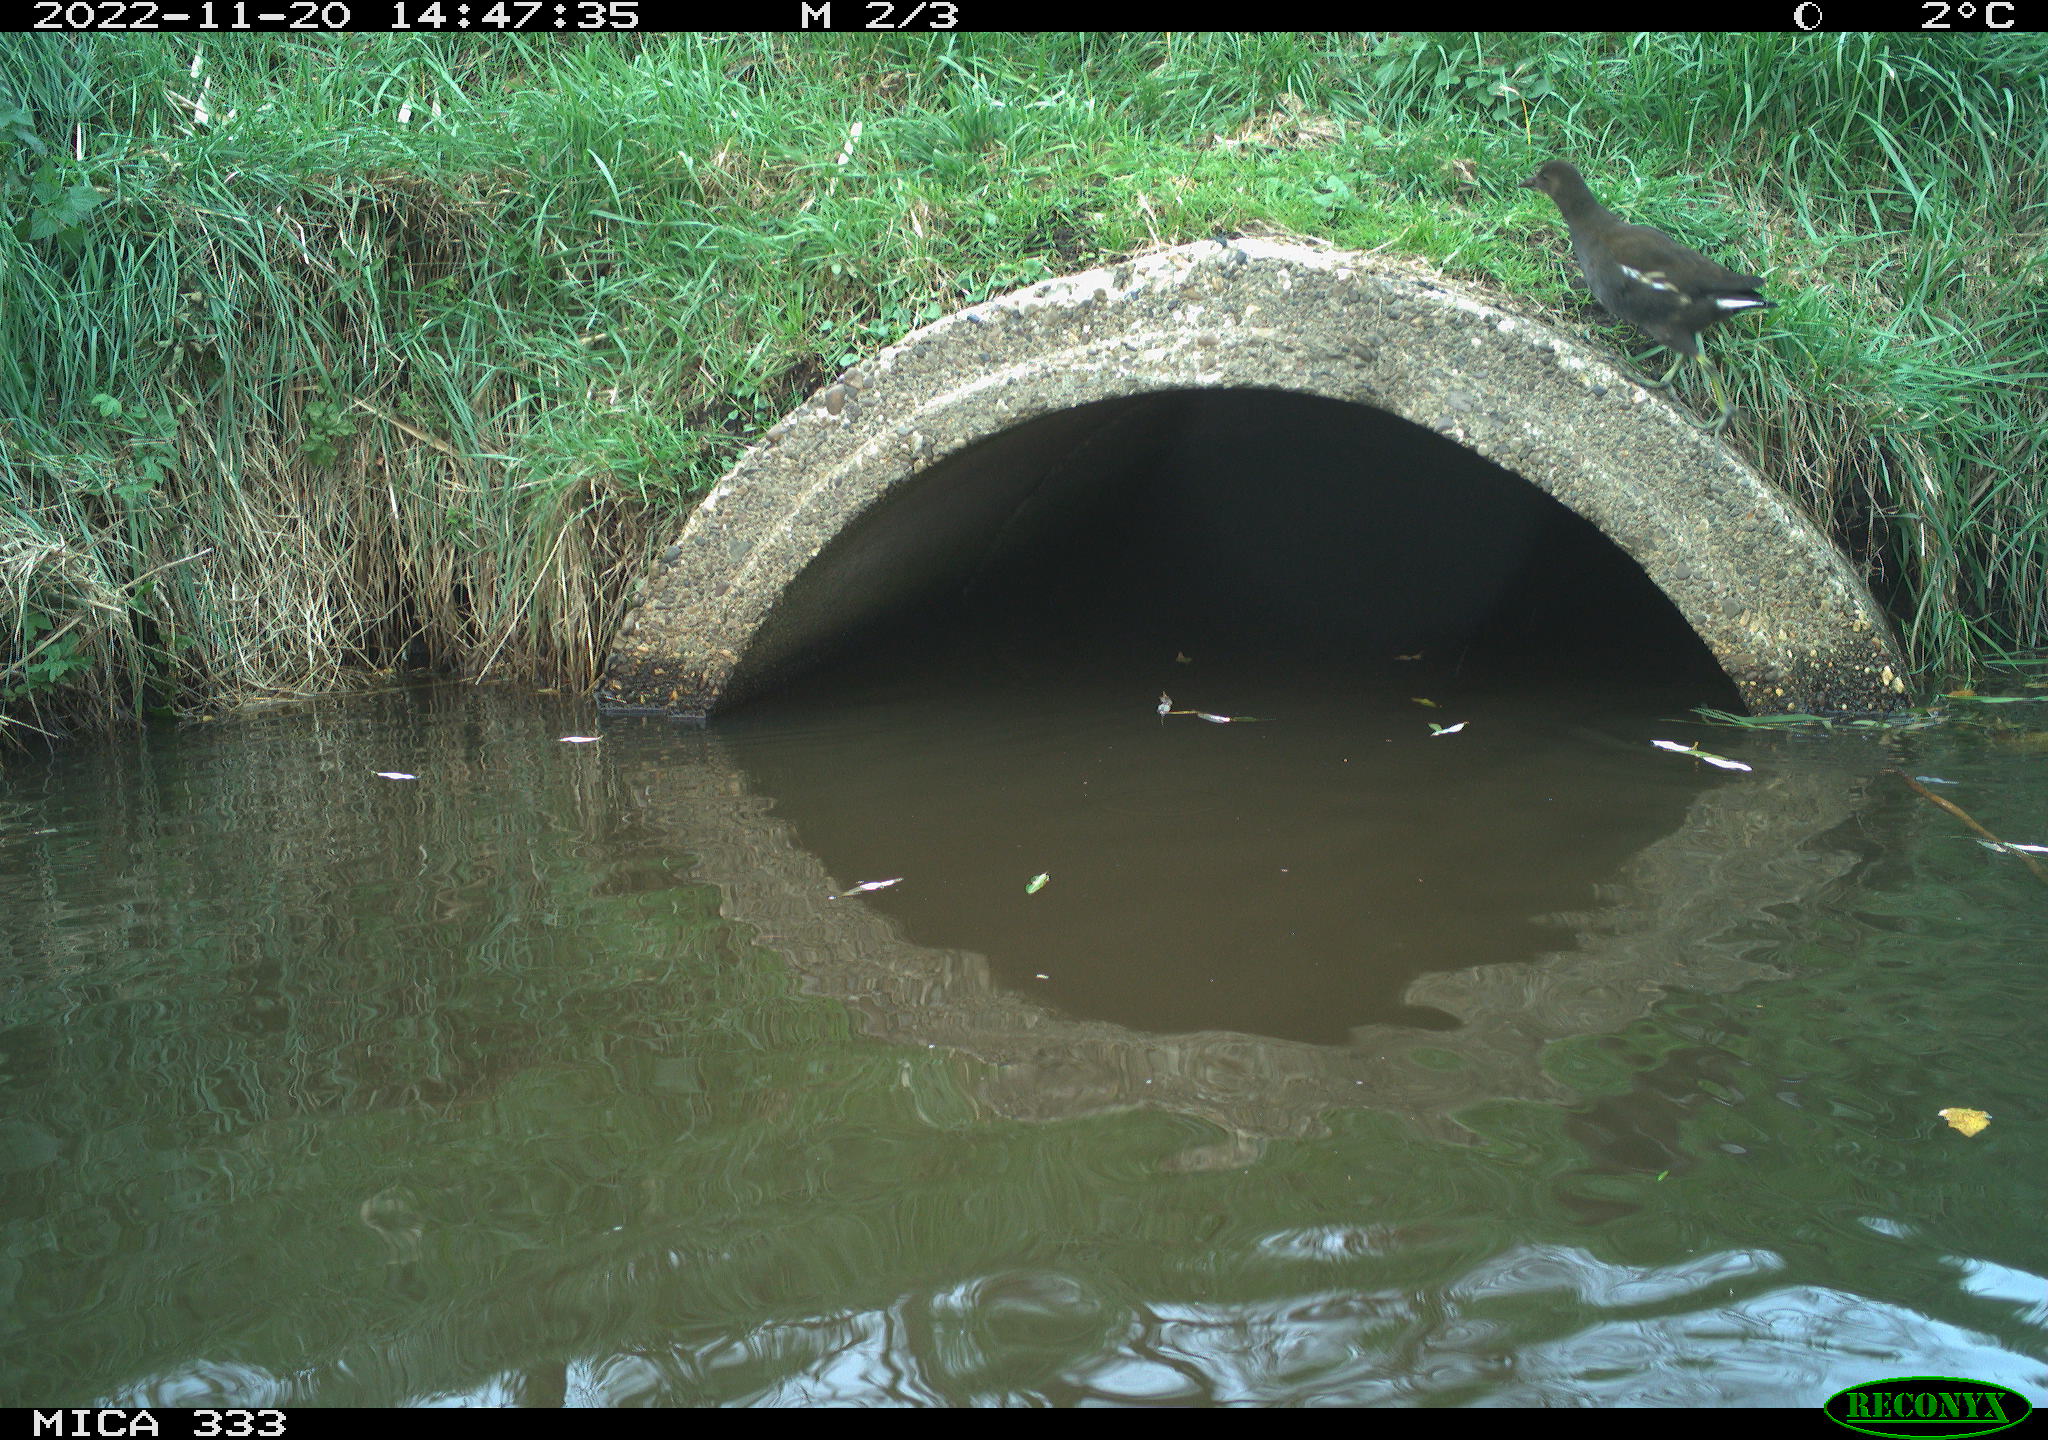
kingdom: Animalia
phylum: Chordata
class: Aves
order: Gruiformes
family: Rallidae
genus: Gallinula
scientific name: Gallinula chloropus
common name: Common moorhen
